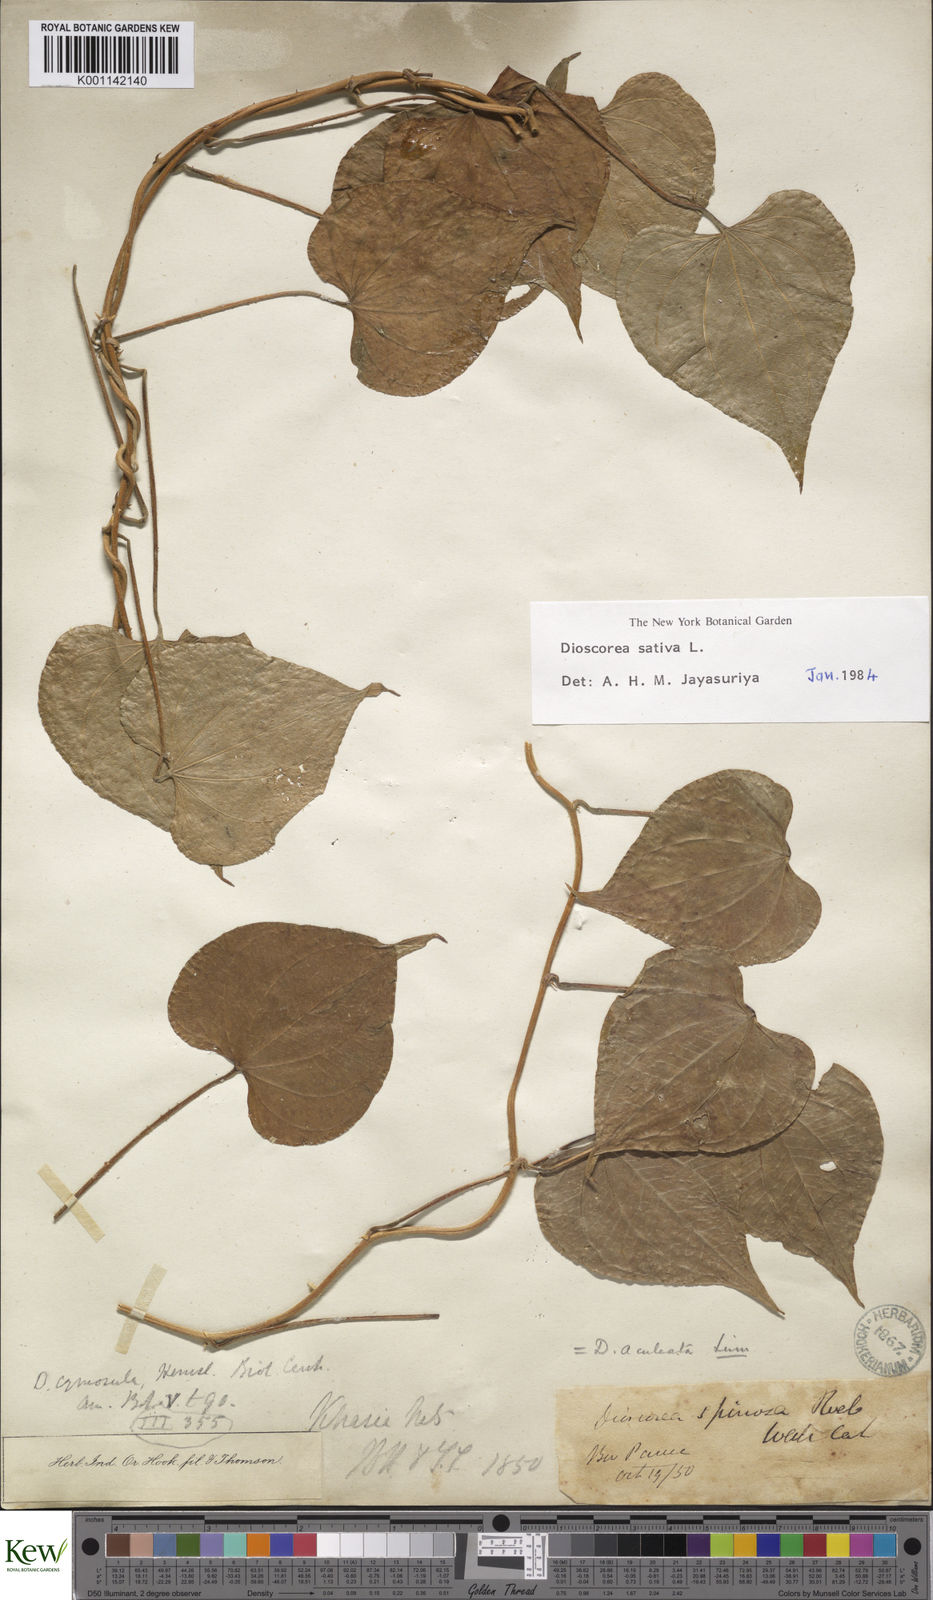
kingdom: Plantae
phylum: Tracheophyta
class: Liliopsida
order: Dioscoreales
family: Dioscoreaceae
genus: Dioscorea
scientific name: Dioscorea esculenta
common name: Chinese yam
